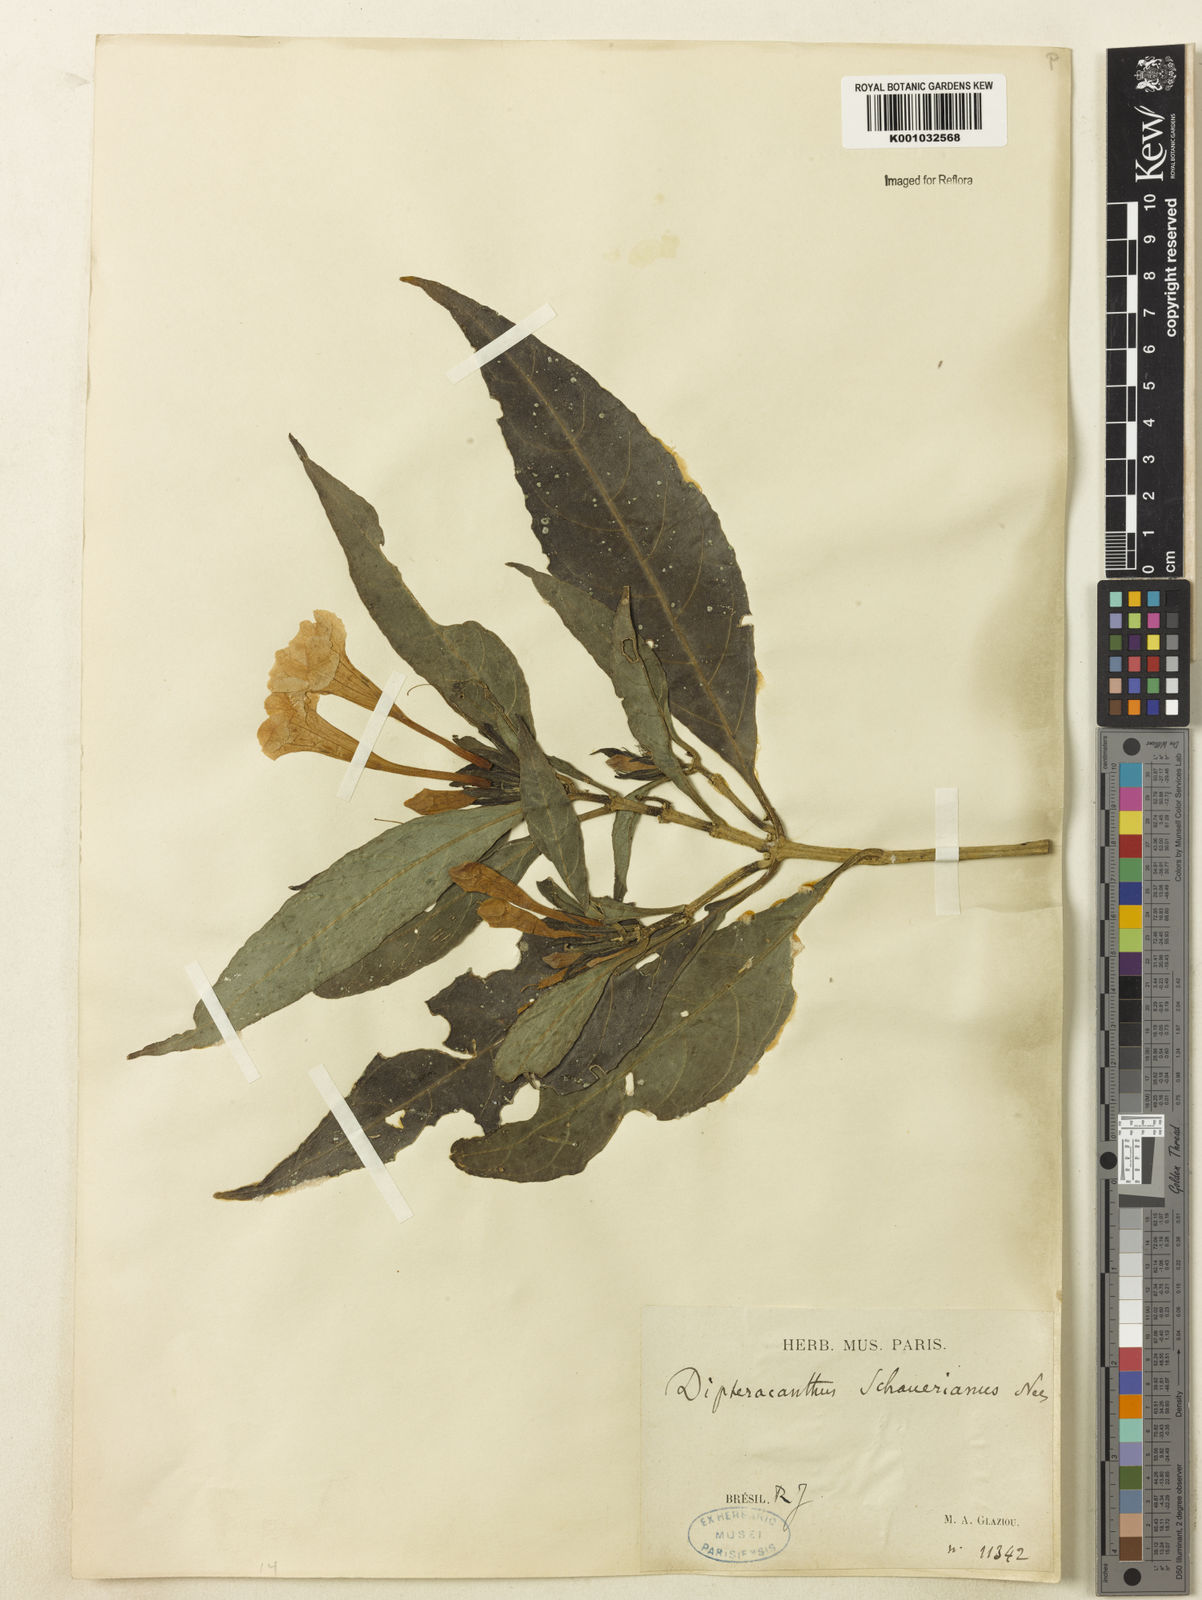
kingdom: Plantae
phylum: Tracheophyta
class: Magnoliopsida
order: Lamiales
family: Acanthaceae
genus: Ruellia
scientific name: Ruellia
